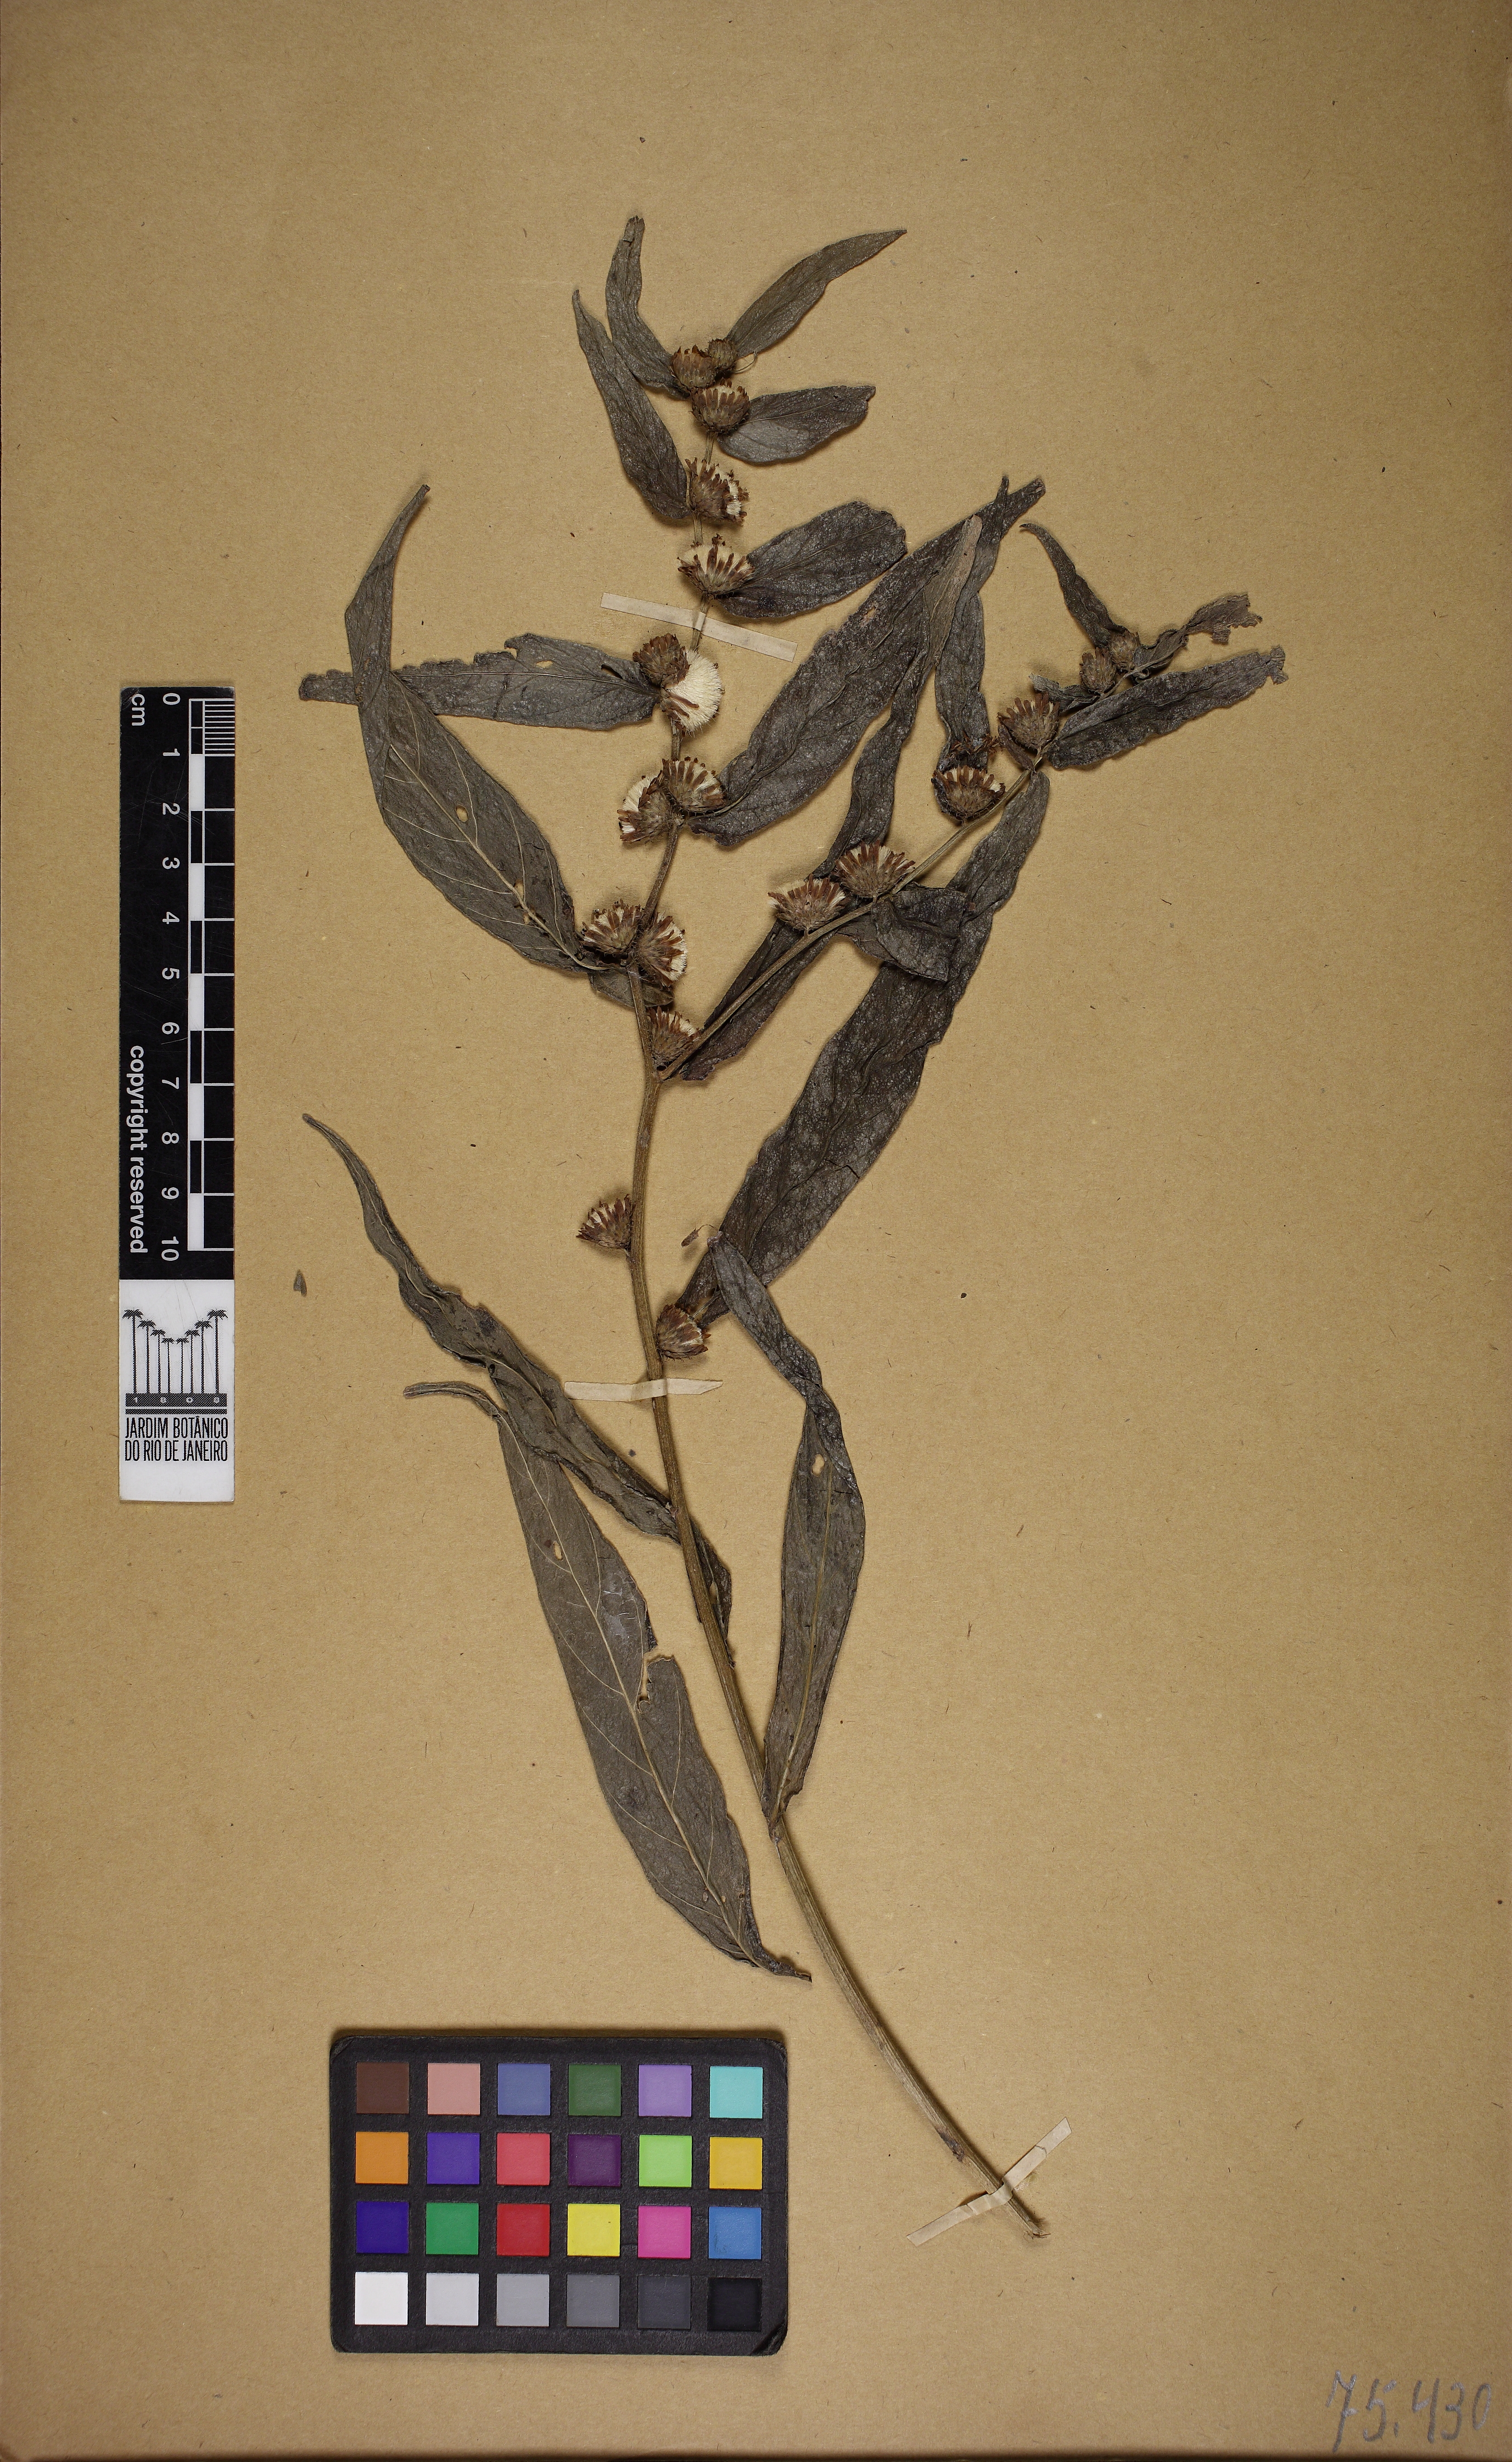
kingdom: Plantae
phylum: Tracheophyta
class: Magnoliopsida
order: Asterales
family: Asteraceae
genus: Lepidaploa
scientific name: Lepidaploa
